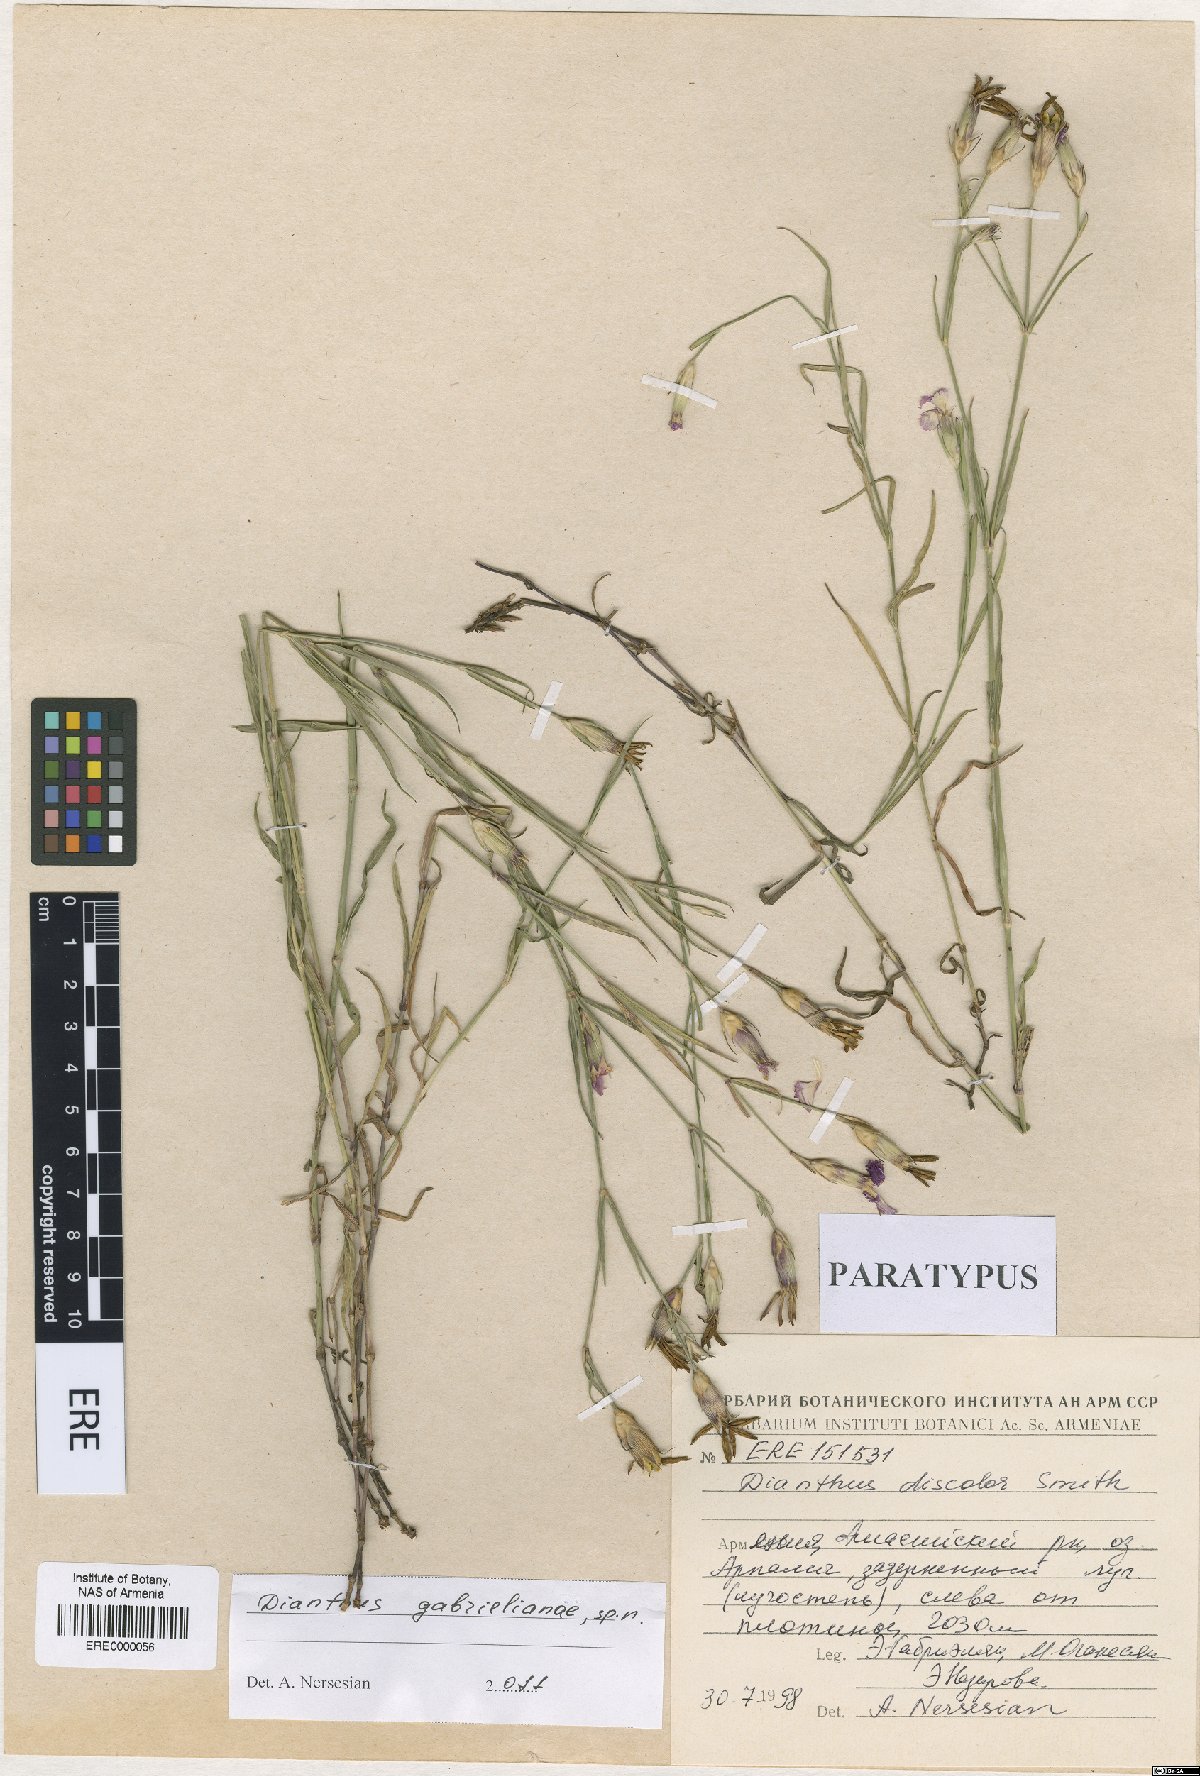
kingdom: Plantae
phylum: Tracheophyta
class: Magnoliopsida
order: Caryophyllales
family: Caryophyllaceae
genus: Dianthus
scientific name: Dianthus gabrielianae
